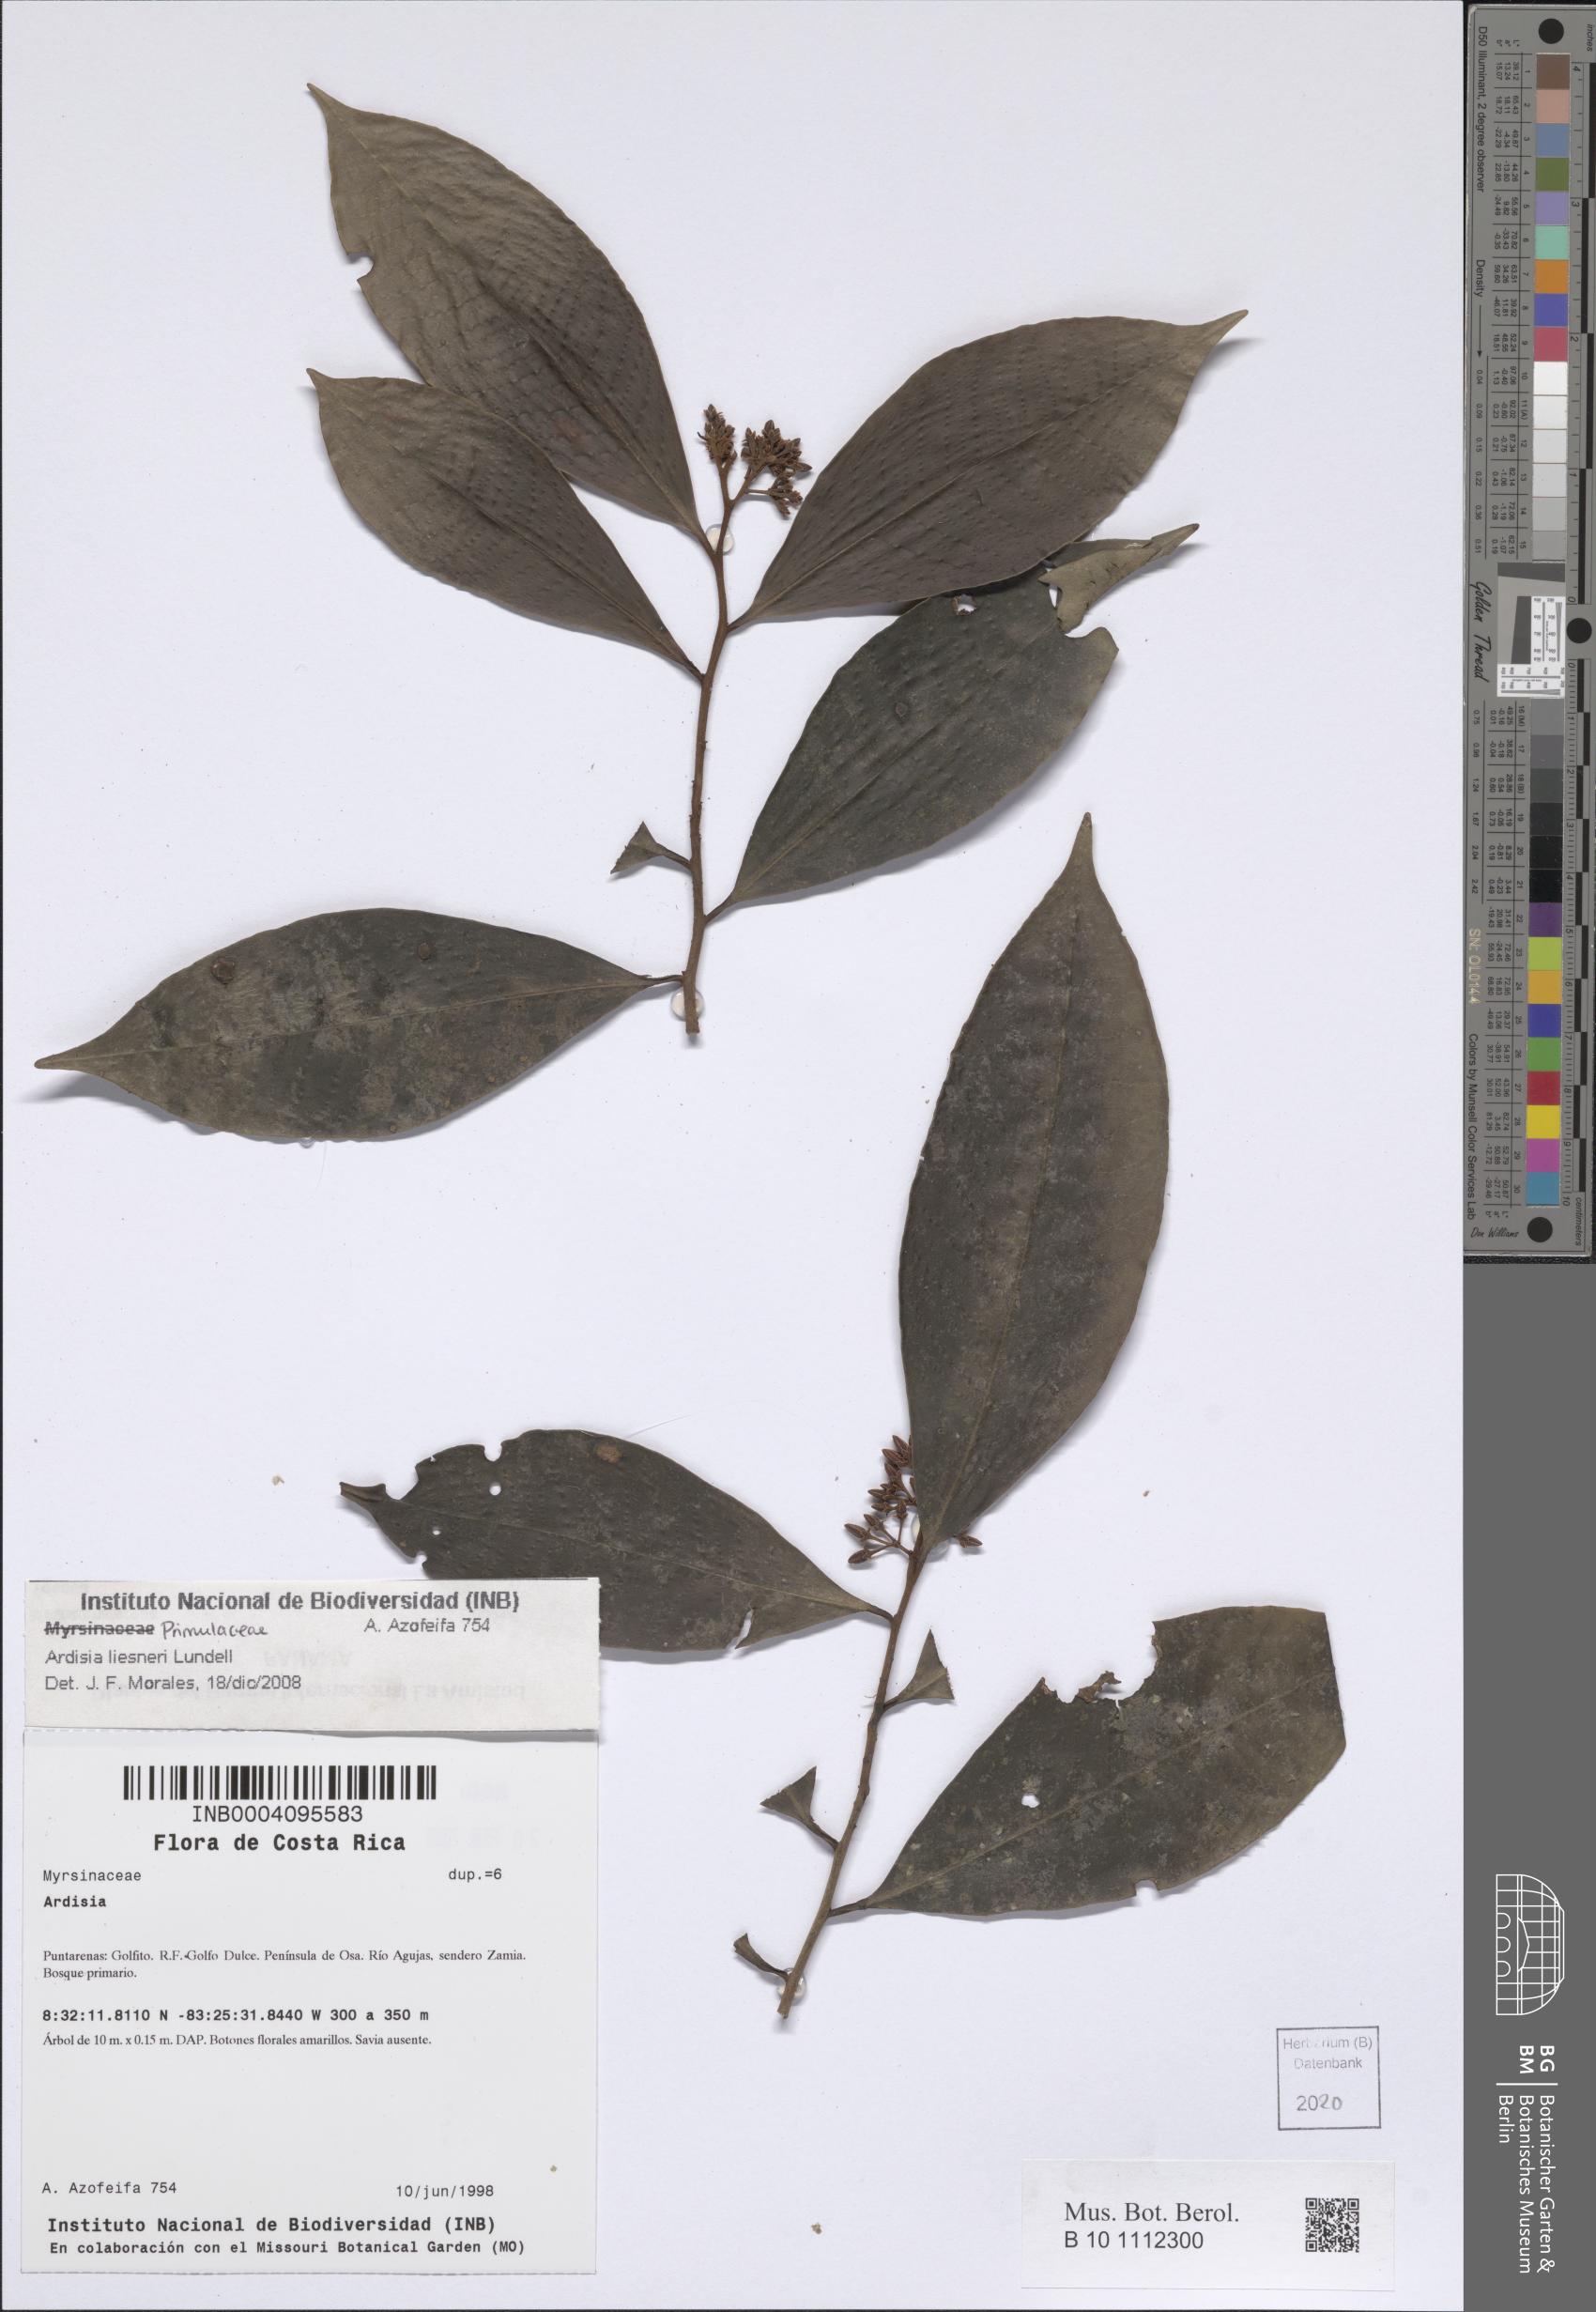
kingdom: Plantae
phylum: Tracheophyta
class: Magnoliopsida
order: Ericales
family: Primulaceae
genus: Ardisia
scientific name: Ardisia liesneri
